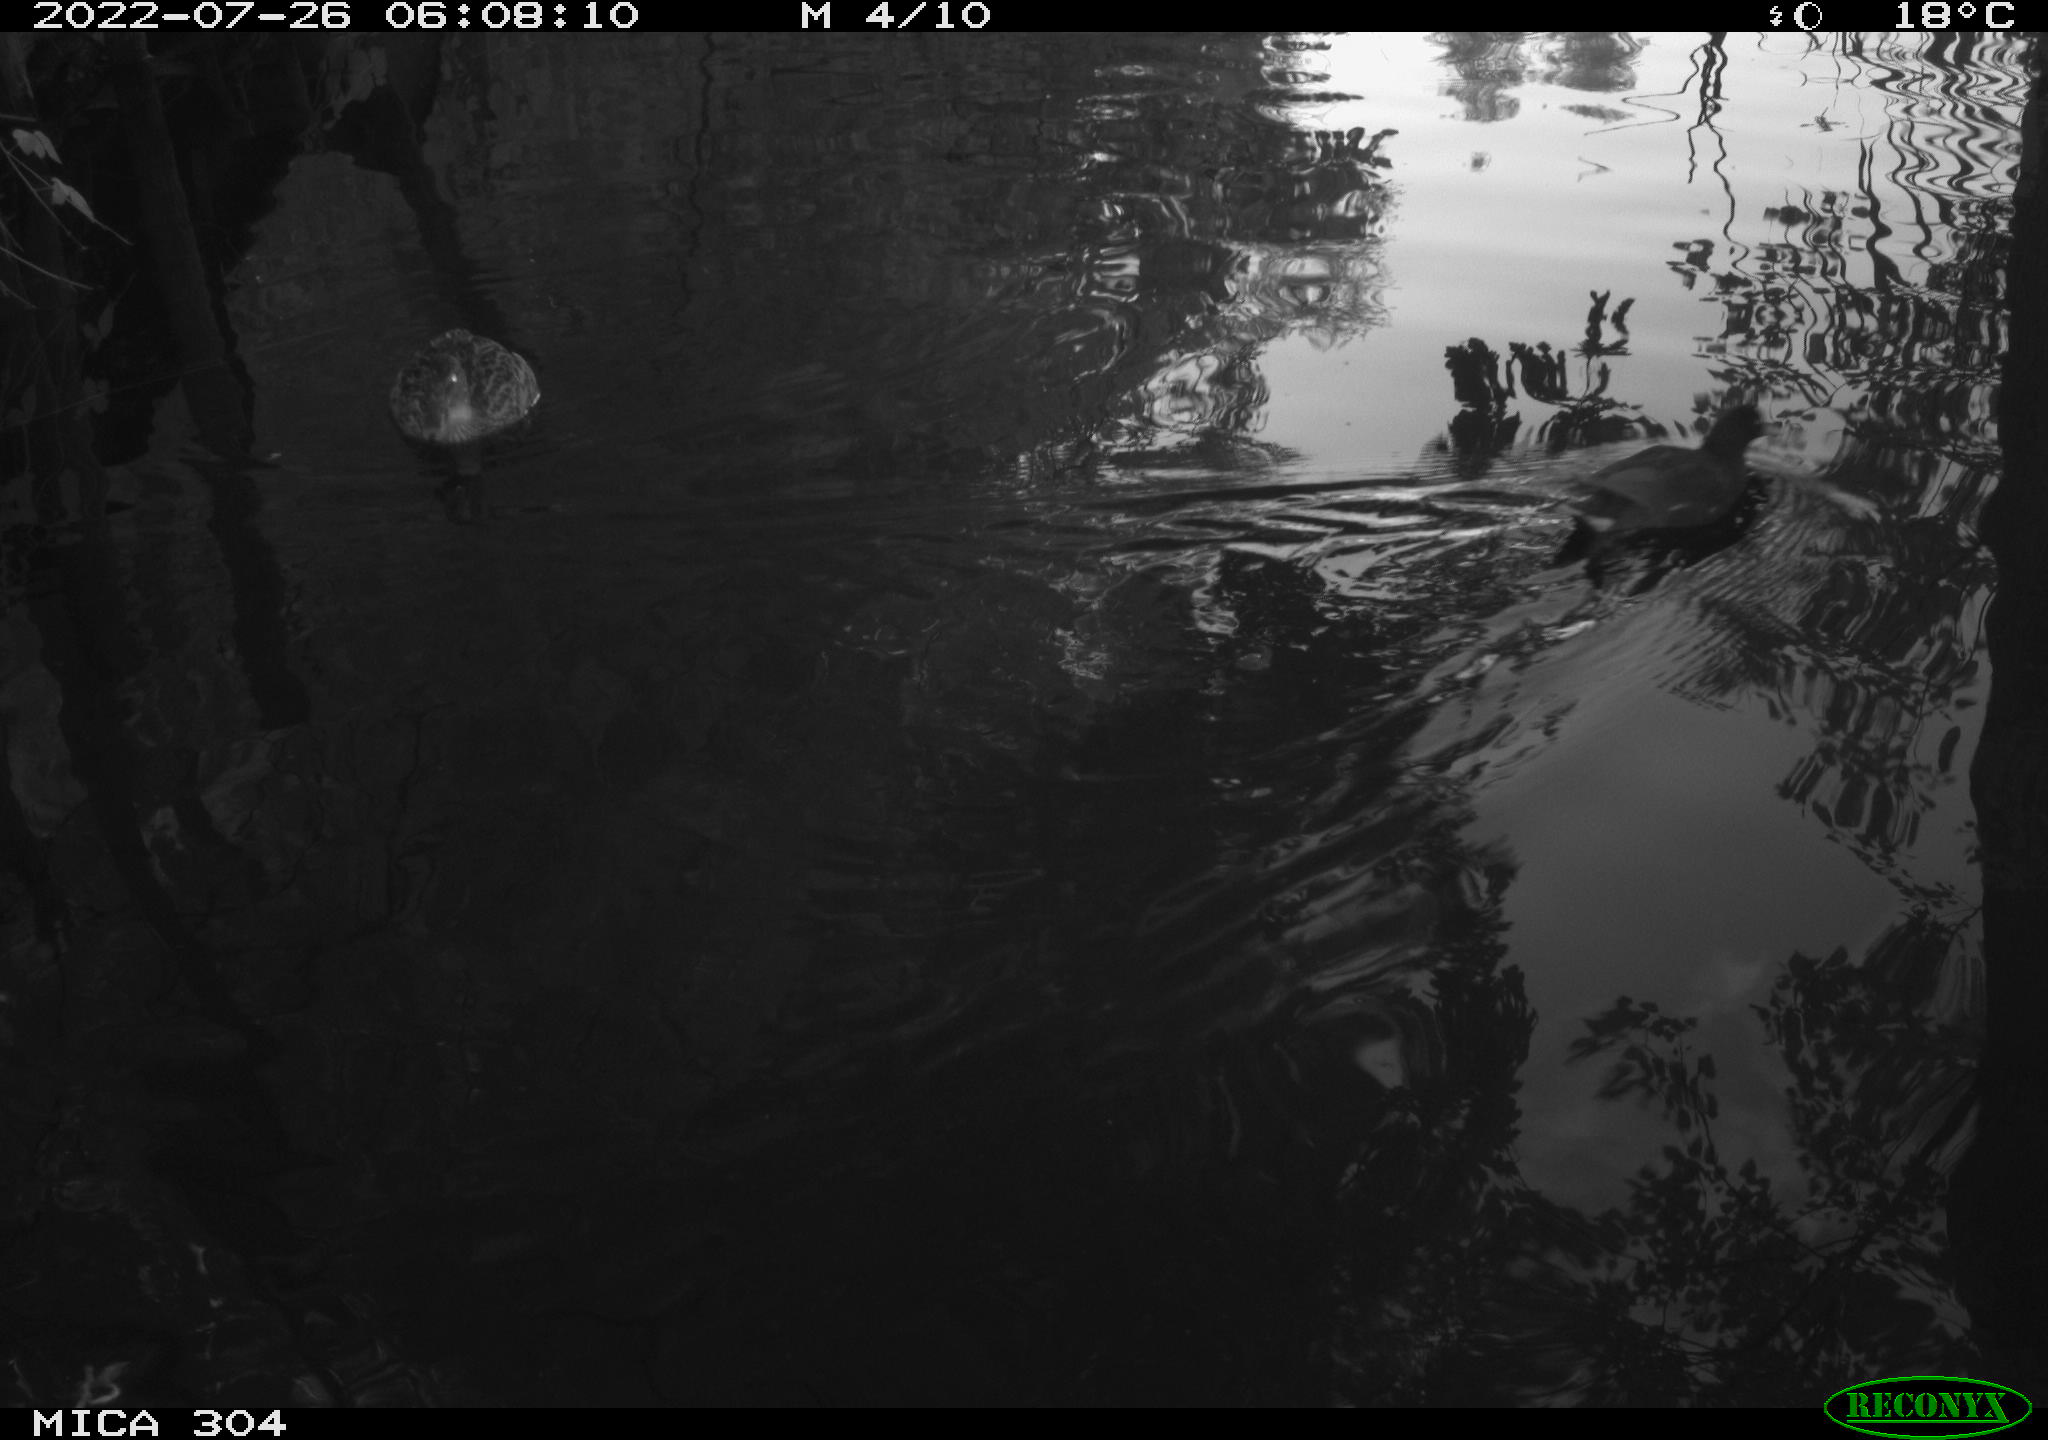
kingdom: Animalia
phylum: Chordata
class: Aves
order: Gruiformes
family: Rallidae
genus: Gallinula
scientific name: Gallinula chloropus
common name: Common moorhen
